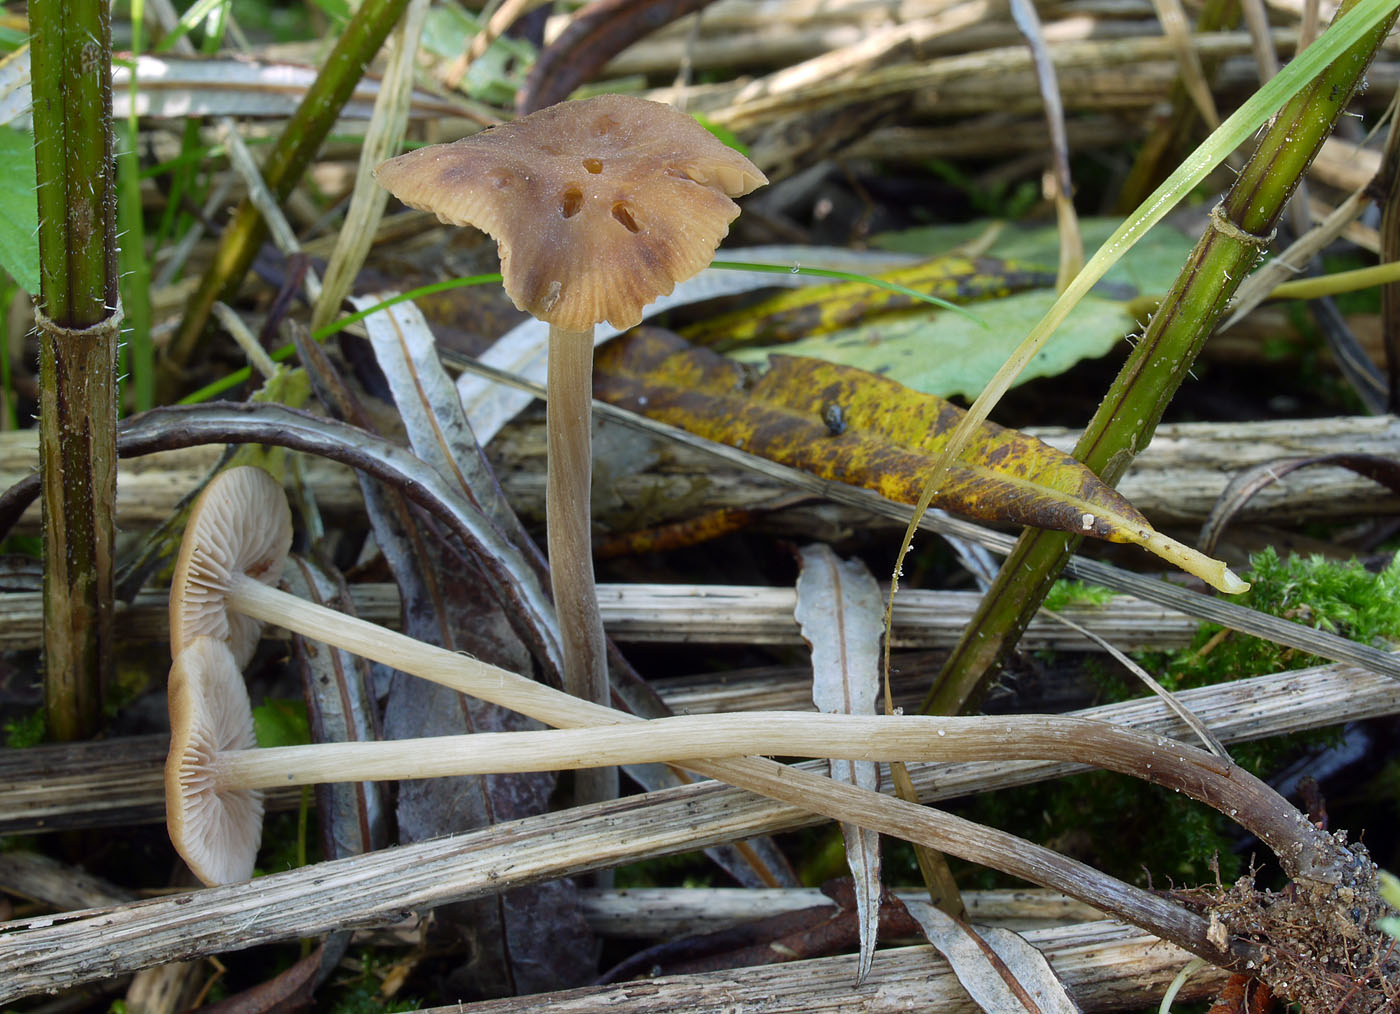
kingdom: Fungi
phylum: Basidiomycota
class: Agaricomycetes
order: Agaricales
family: Hymenogastraceae
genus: Naucoria
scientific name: Naucoria geraniolens
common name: pelargonie-knaphat
